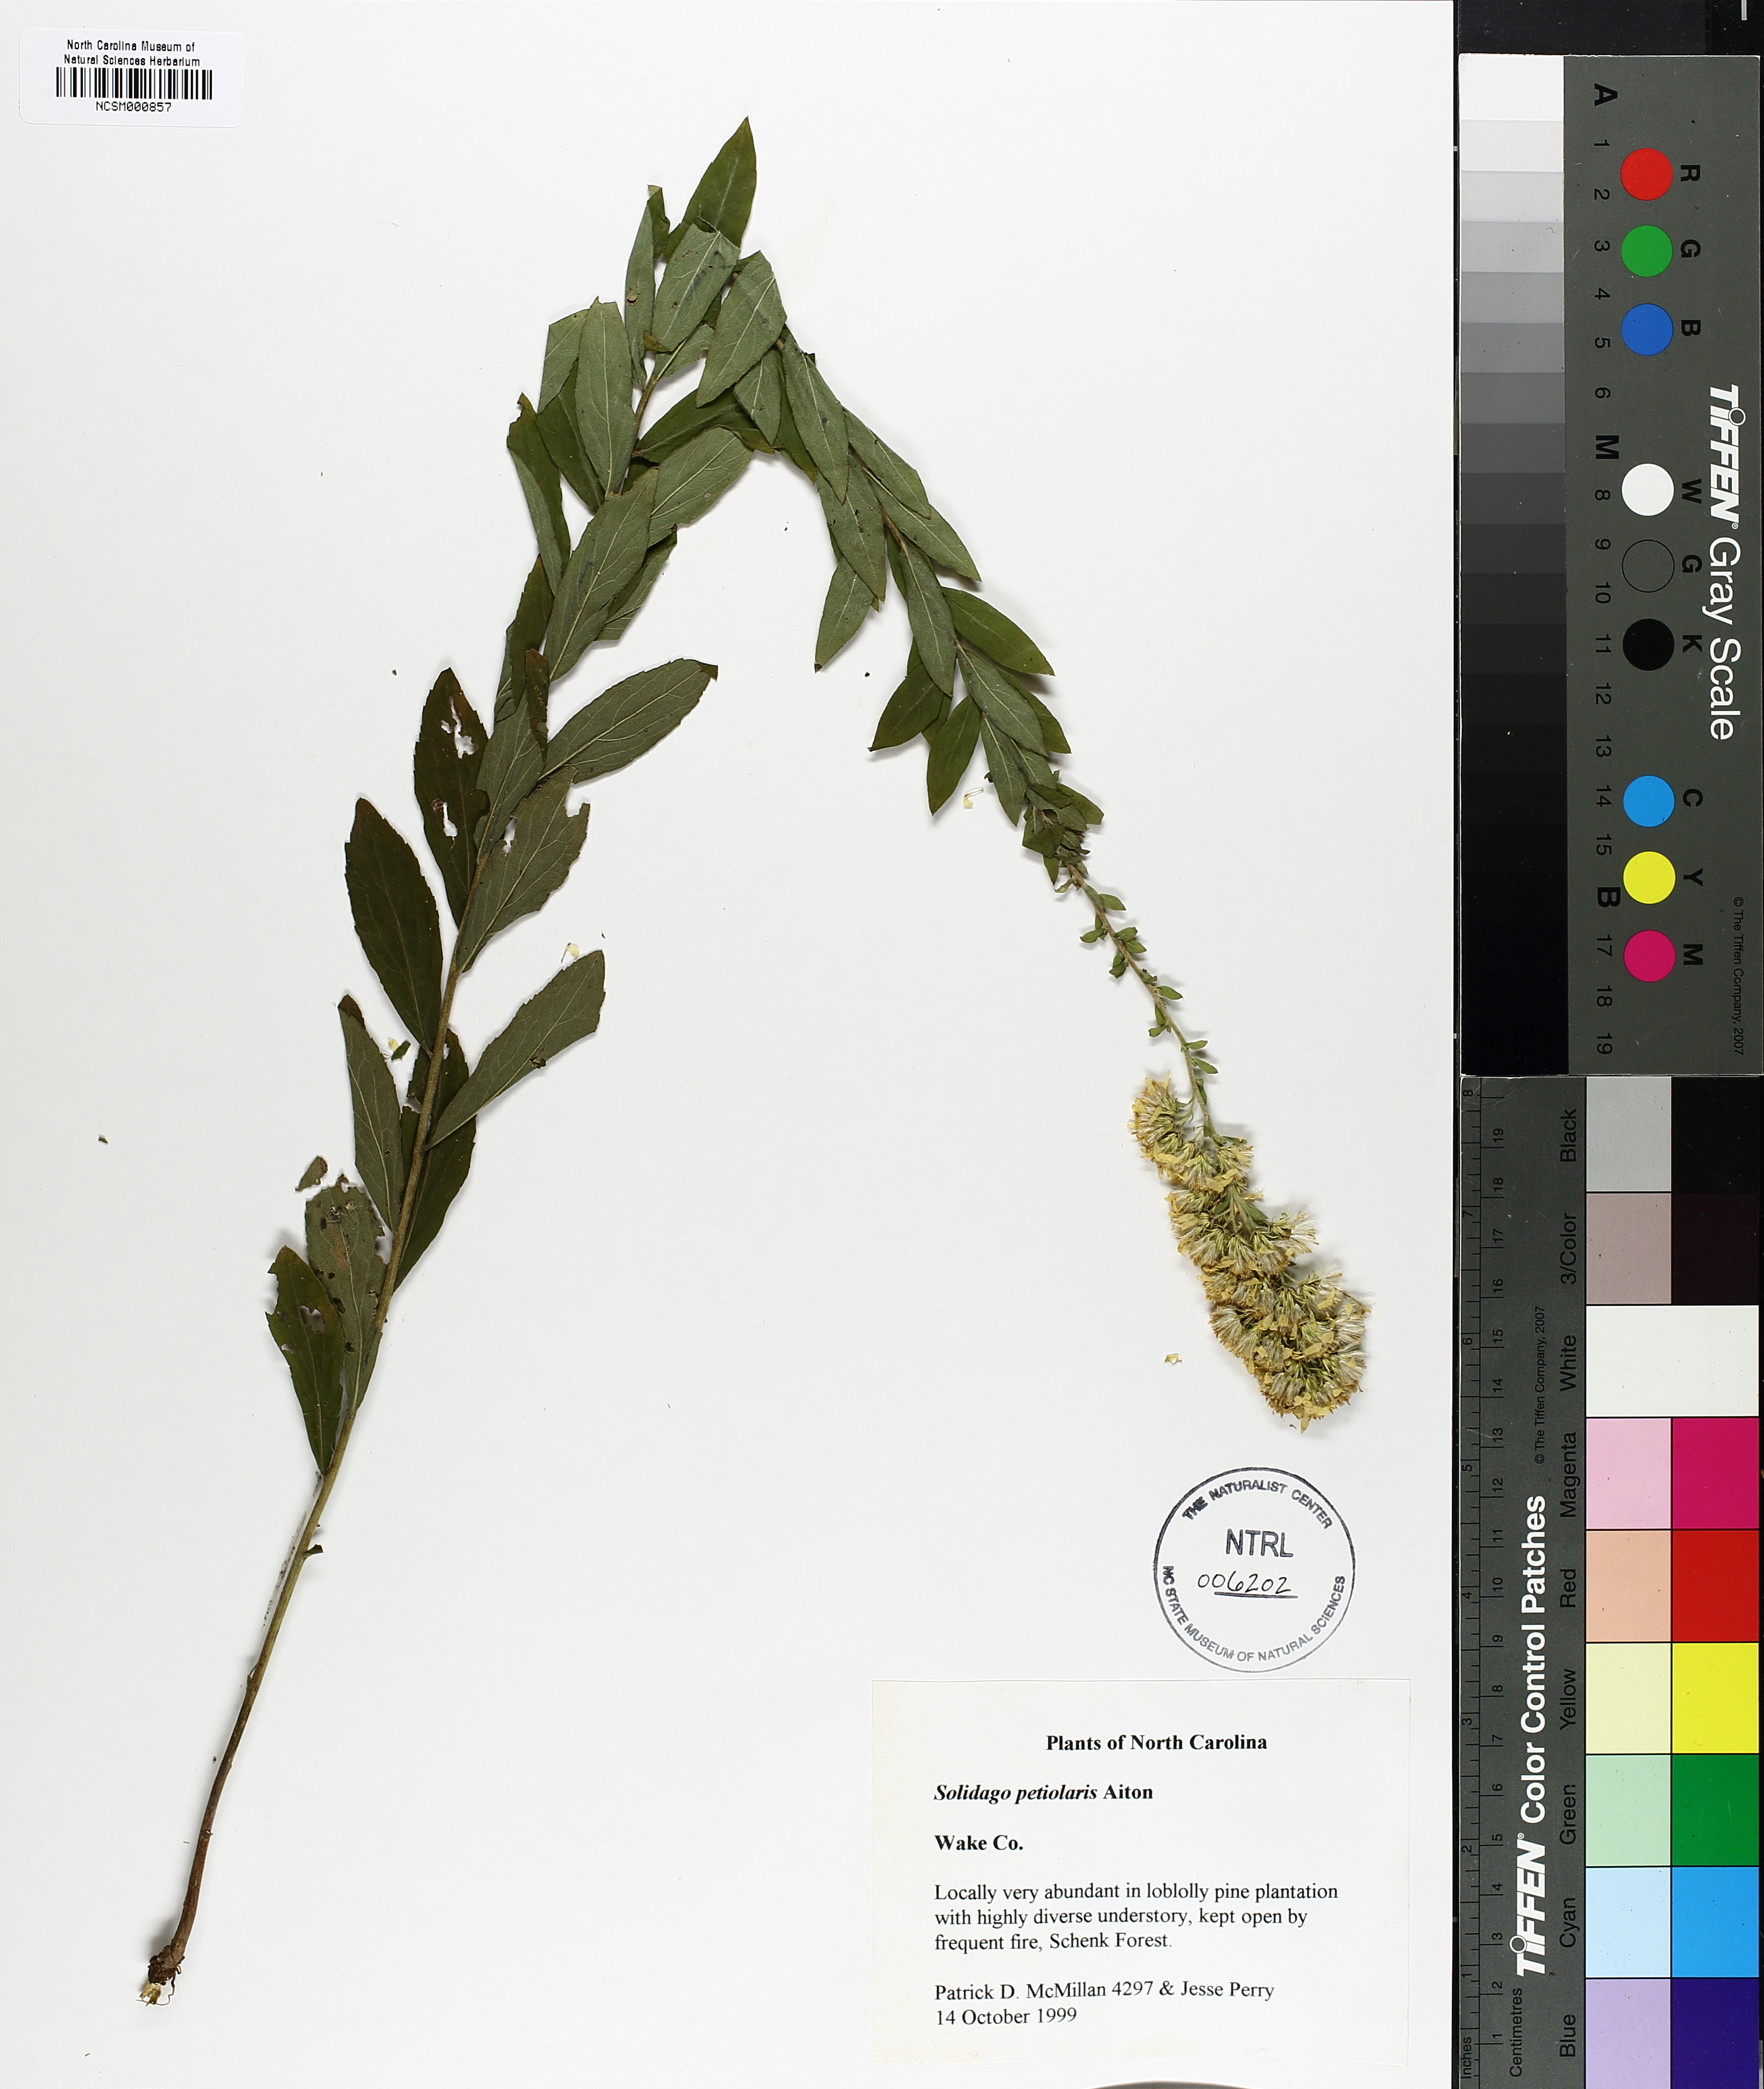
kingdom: Plantae
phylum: Tracheophyta
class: Magnoliopsida
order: Asterales
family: Asteraceae
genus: Solidago
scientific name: Solidago petiolaris
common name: Downy ragged goldenrod
